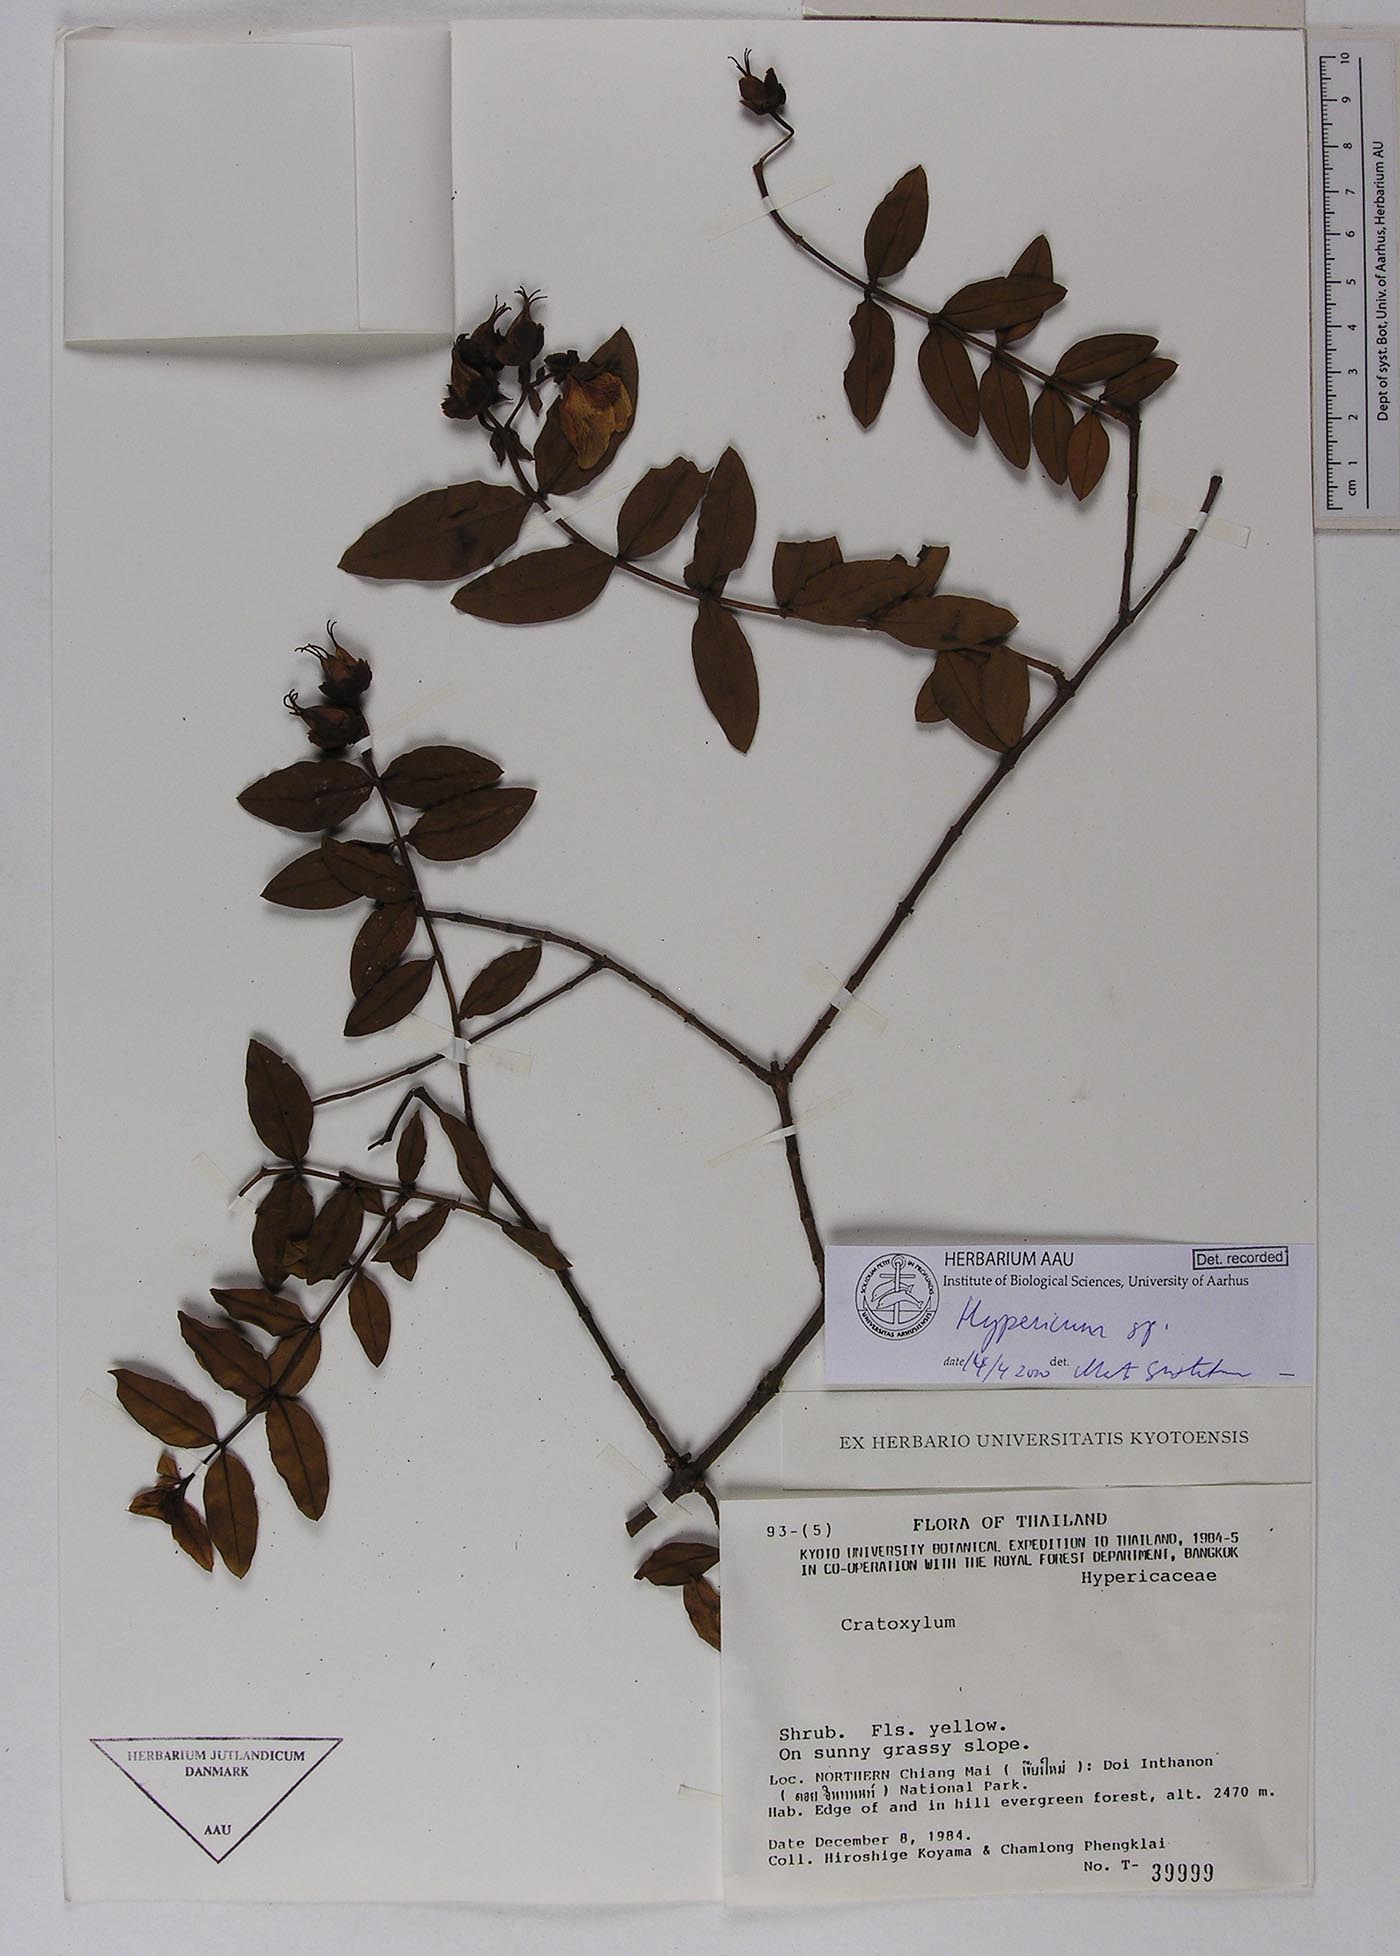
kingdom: Plantae
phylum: Tracheophyta
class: Magnoliopsida
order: Malpighiales
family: Clusiaceae
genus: Hipericum
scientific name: Hipericum
